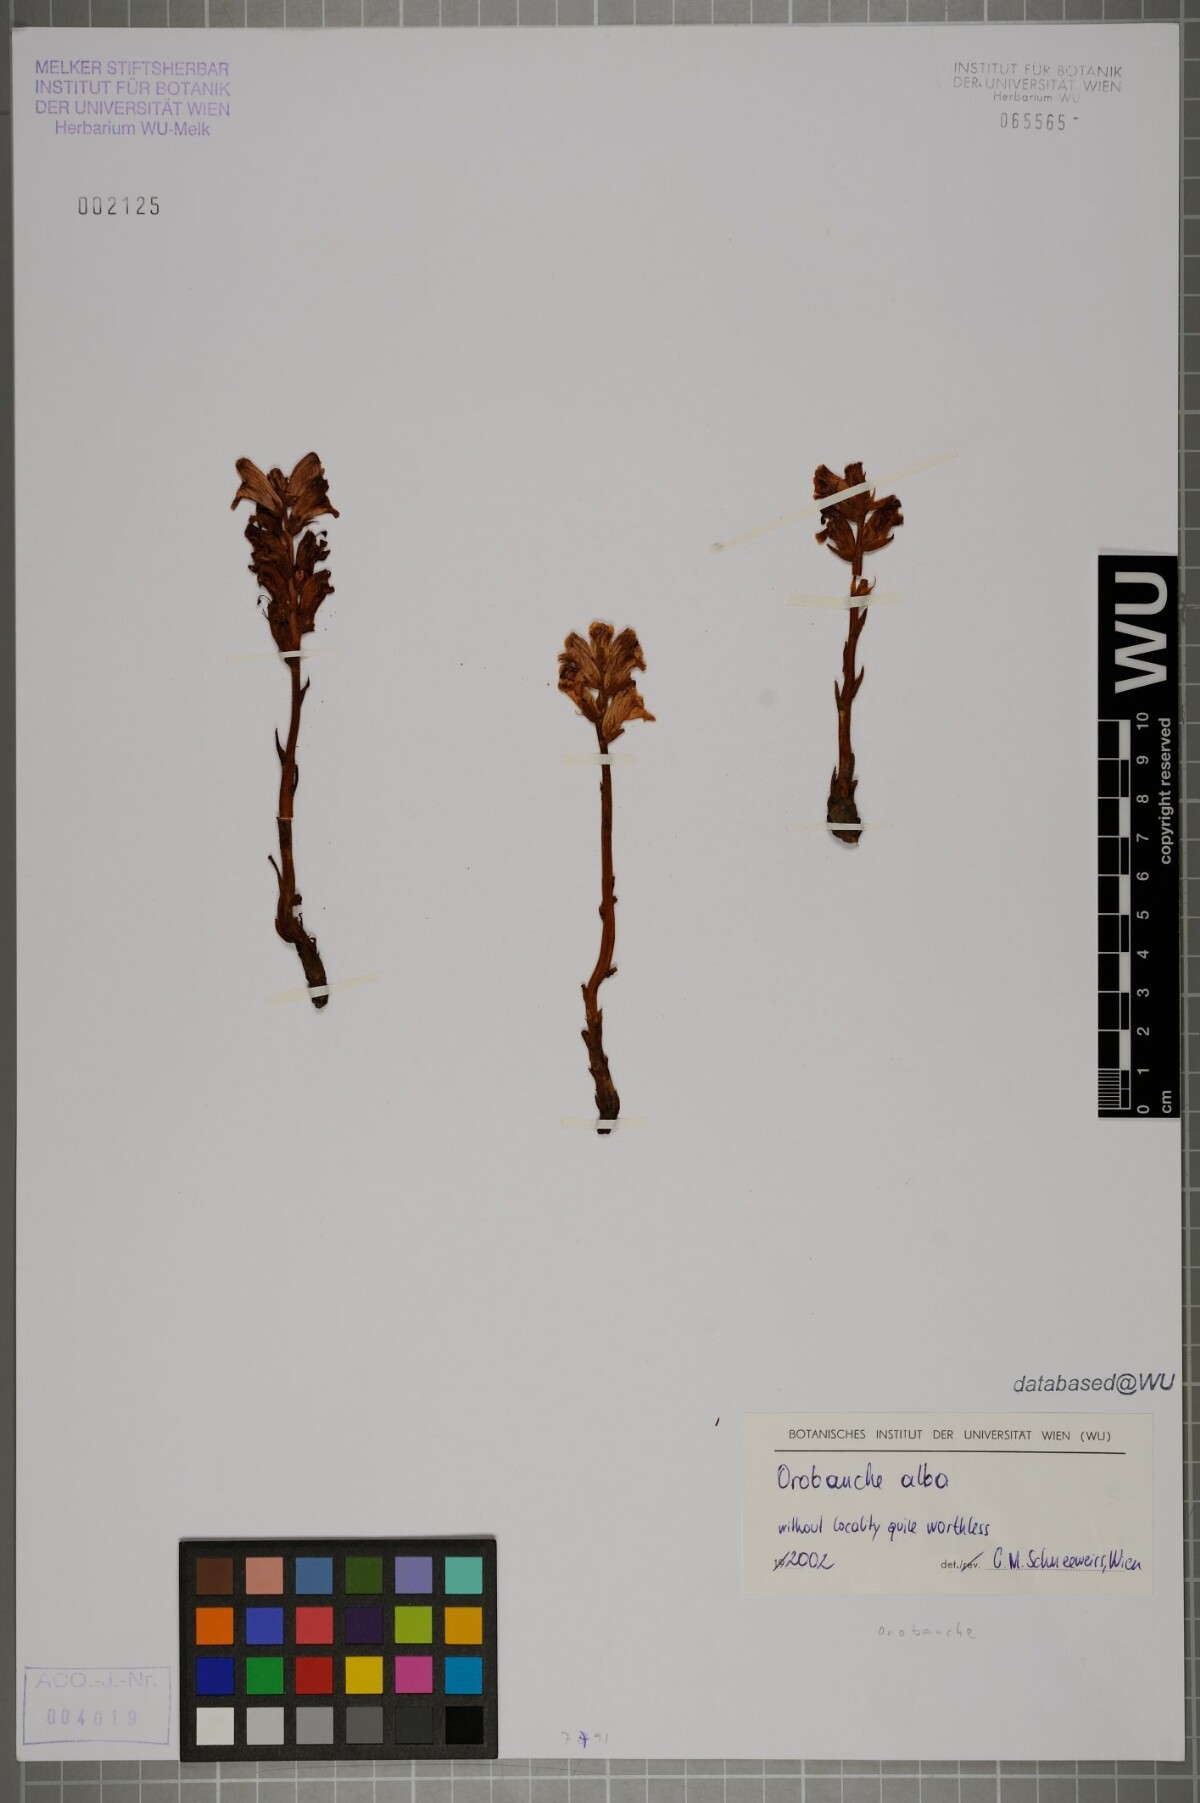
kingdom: Plantae
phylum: Tracheophyta
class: Magnoliopsida
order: Lamiales
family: Orobanchaceae
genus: Orobanche
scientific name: Orobanche alba
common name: Thyme broomrape
